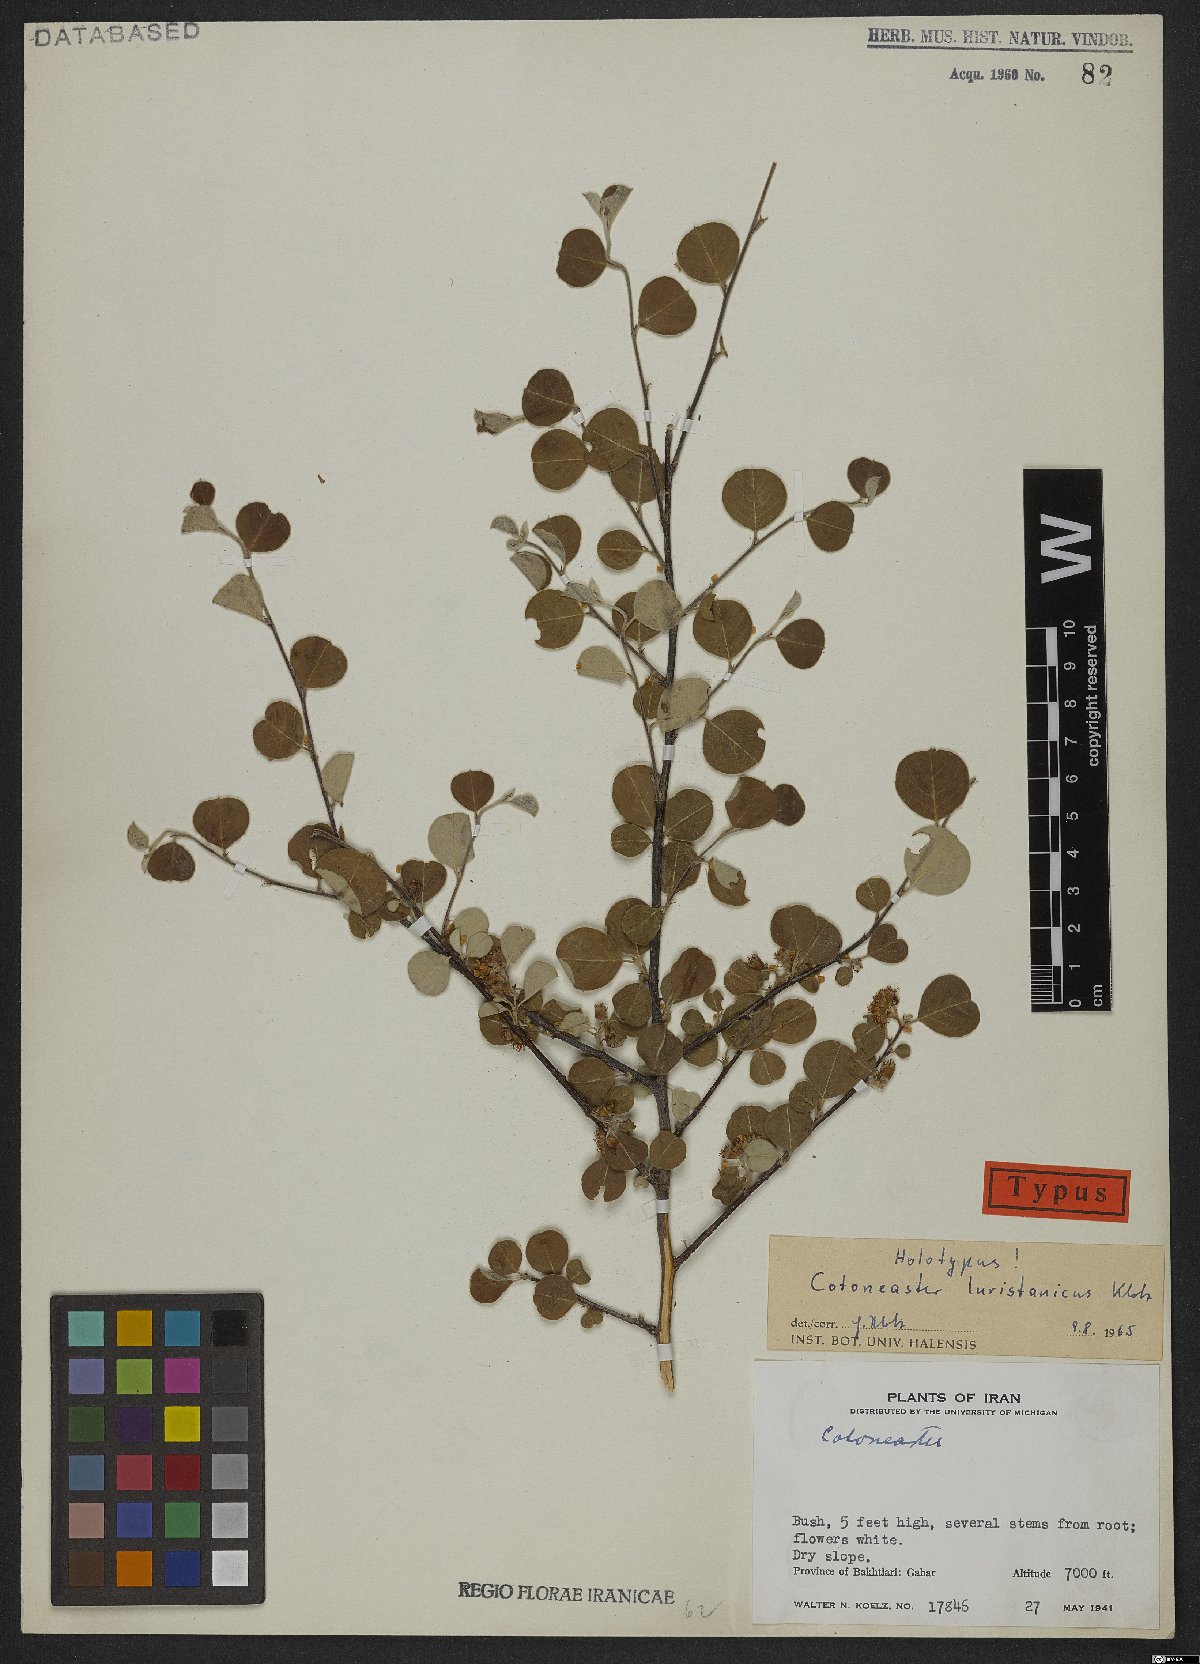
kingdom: Plantae
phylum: Tracheophyta
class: Magnoliopsida
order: Rosales
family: Rosaceae
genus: Cotoneaster
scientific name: Cotoneaster racemiflorus
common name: Cluster-flower cotoneaster
